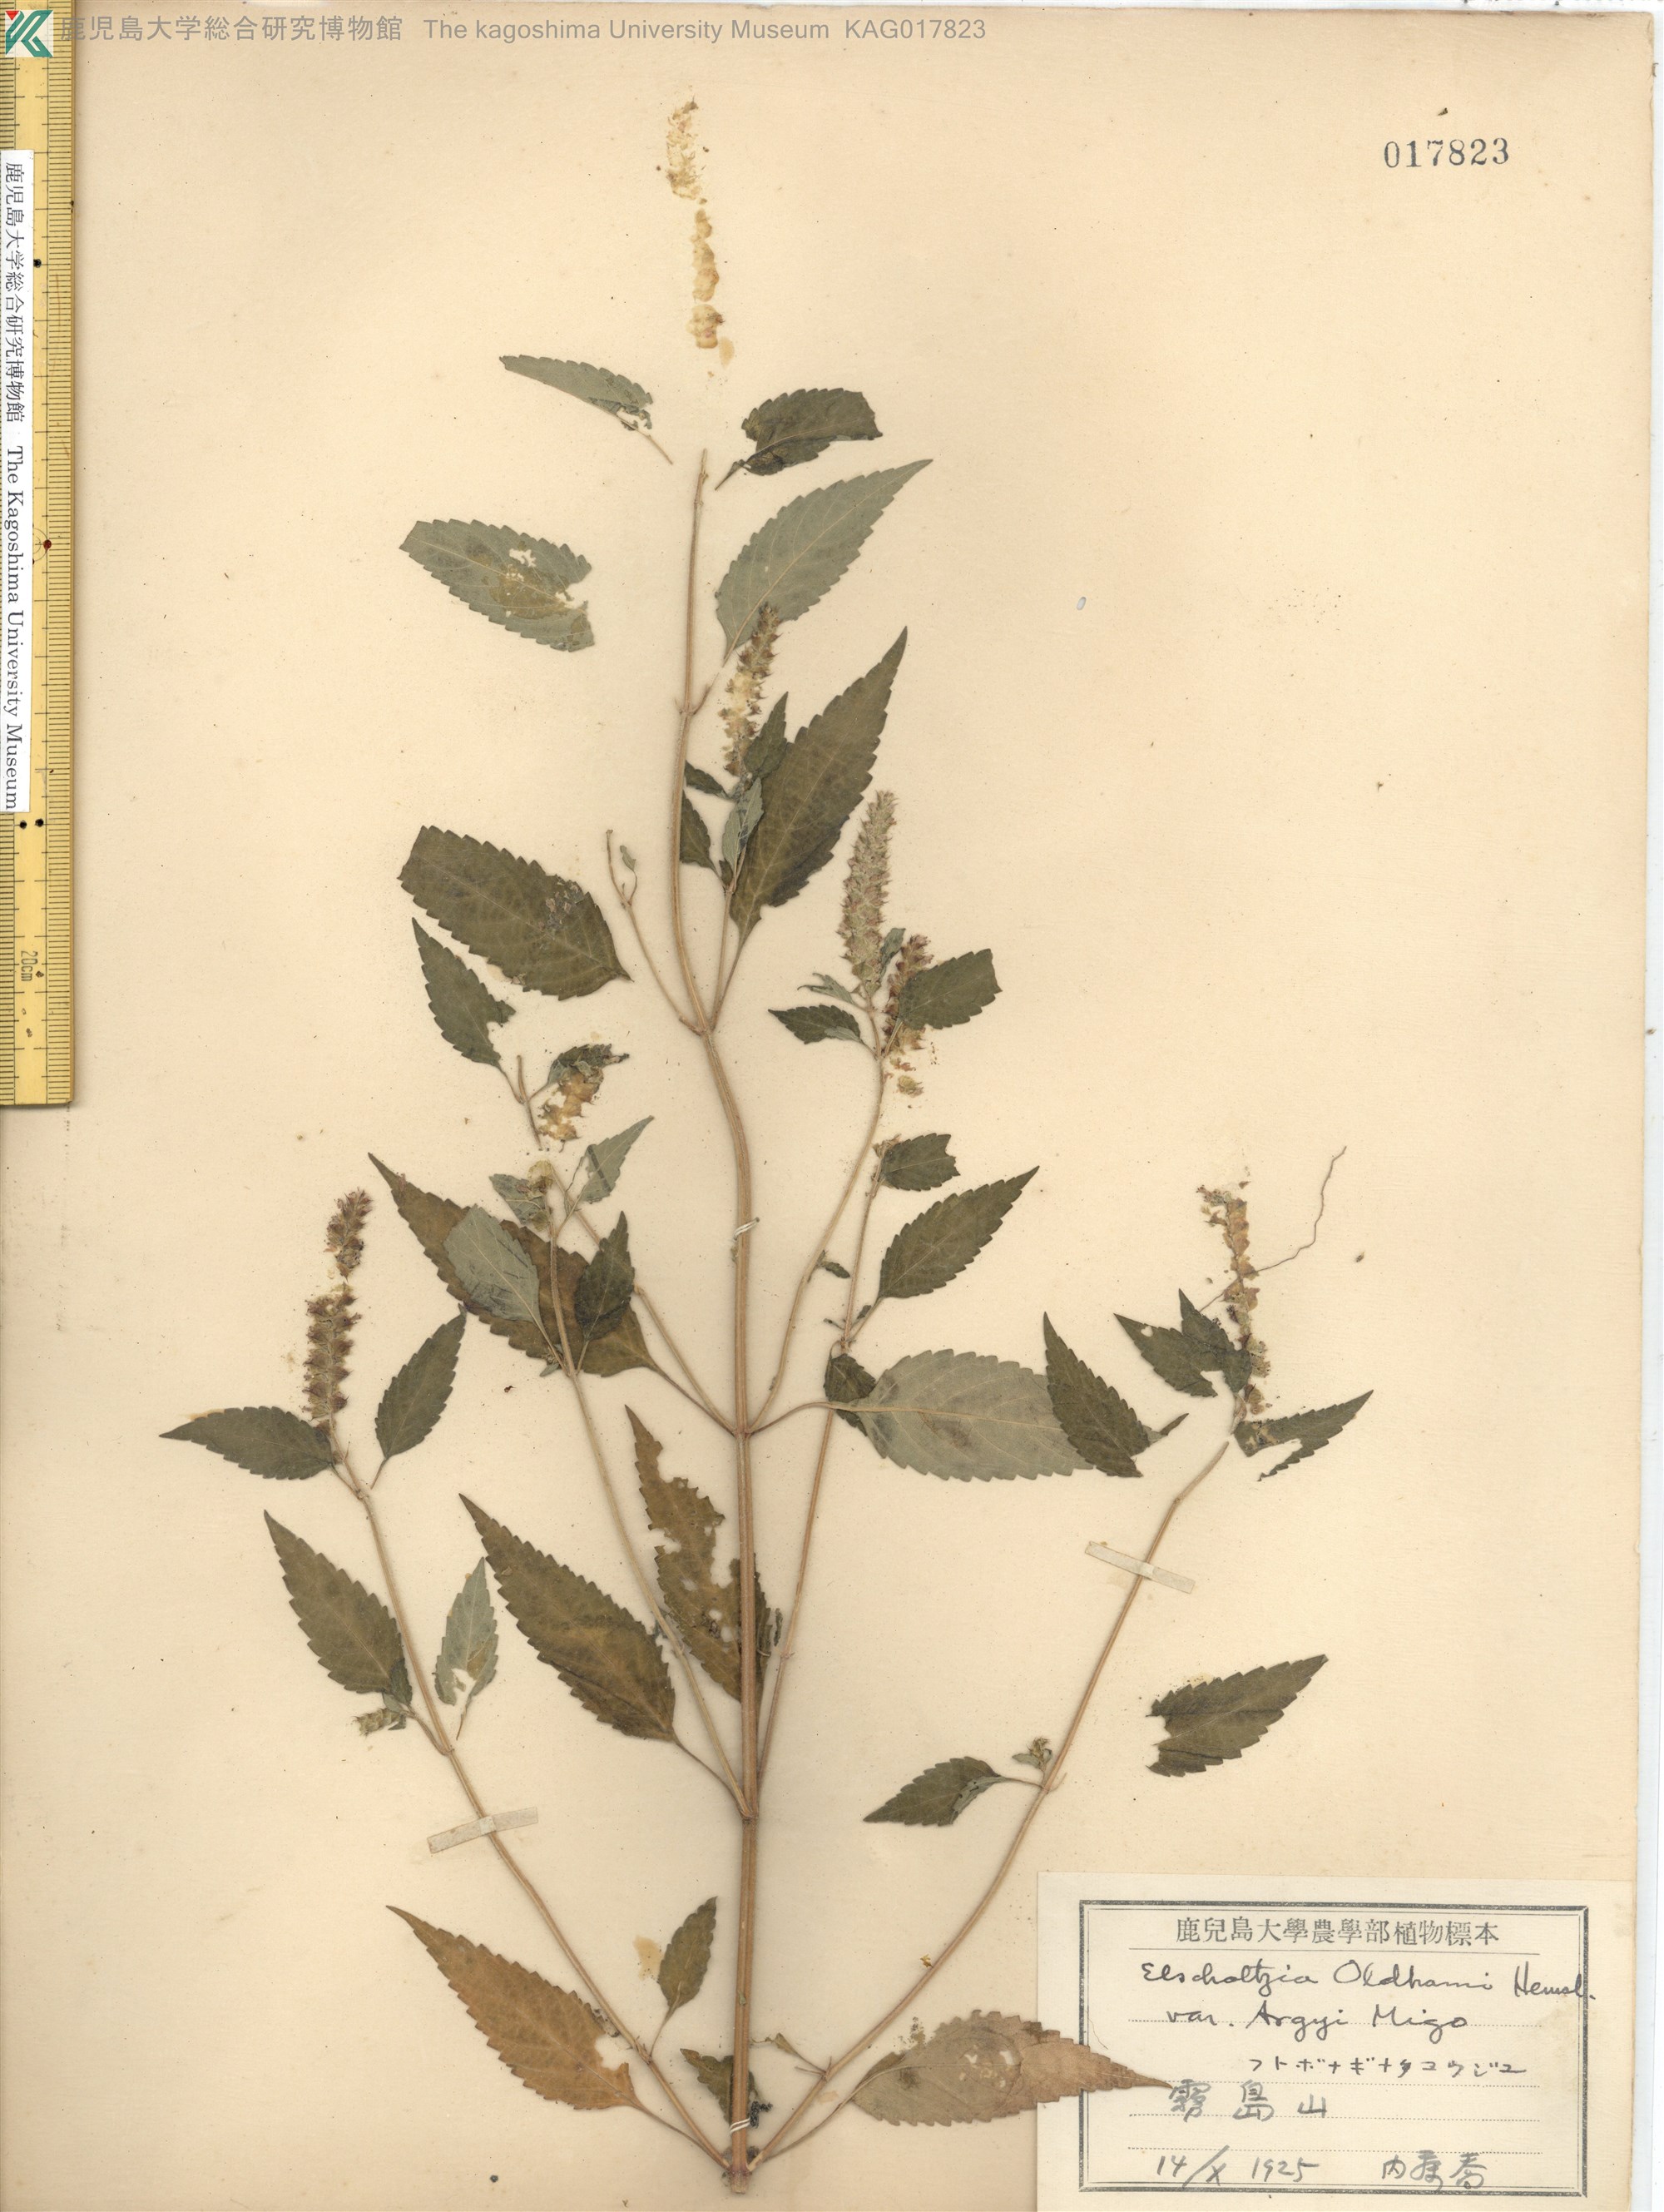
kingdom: Plantae
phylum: Tracheophyta
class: Magnoliopsida
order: Lamiales
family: Lamiaceae
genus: Elsholtzia
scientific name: Elsholtzia nipponica
